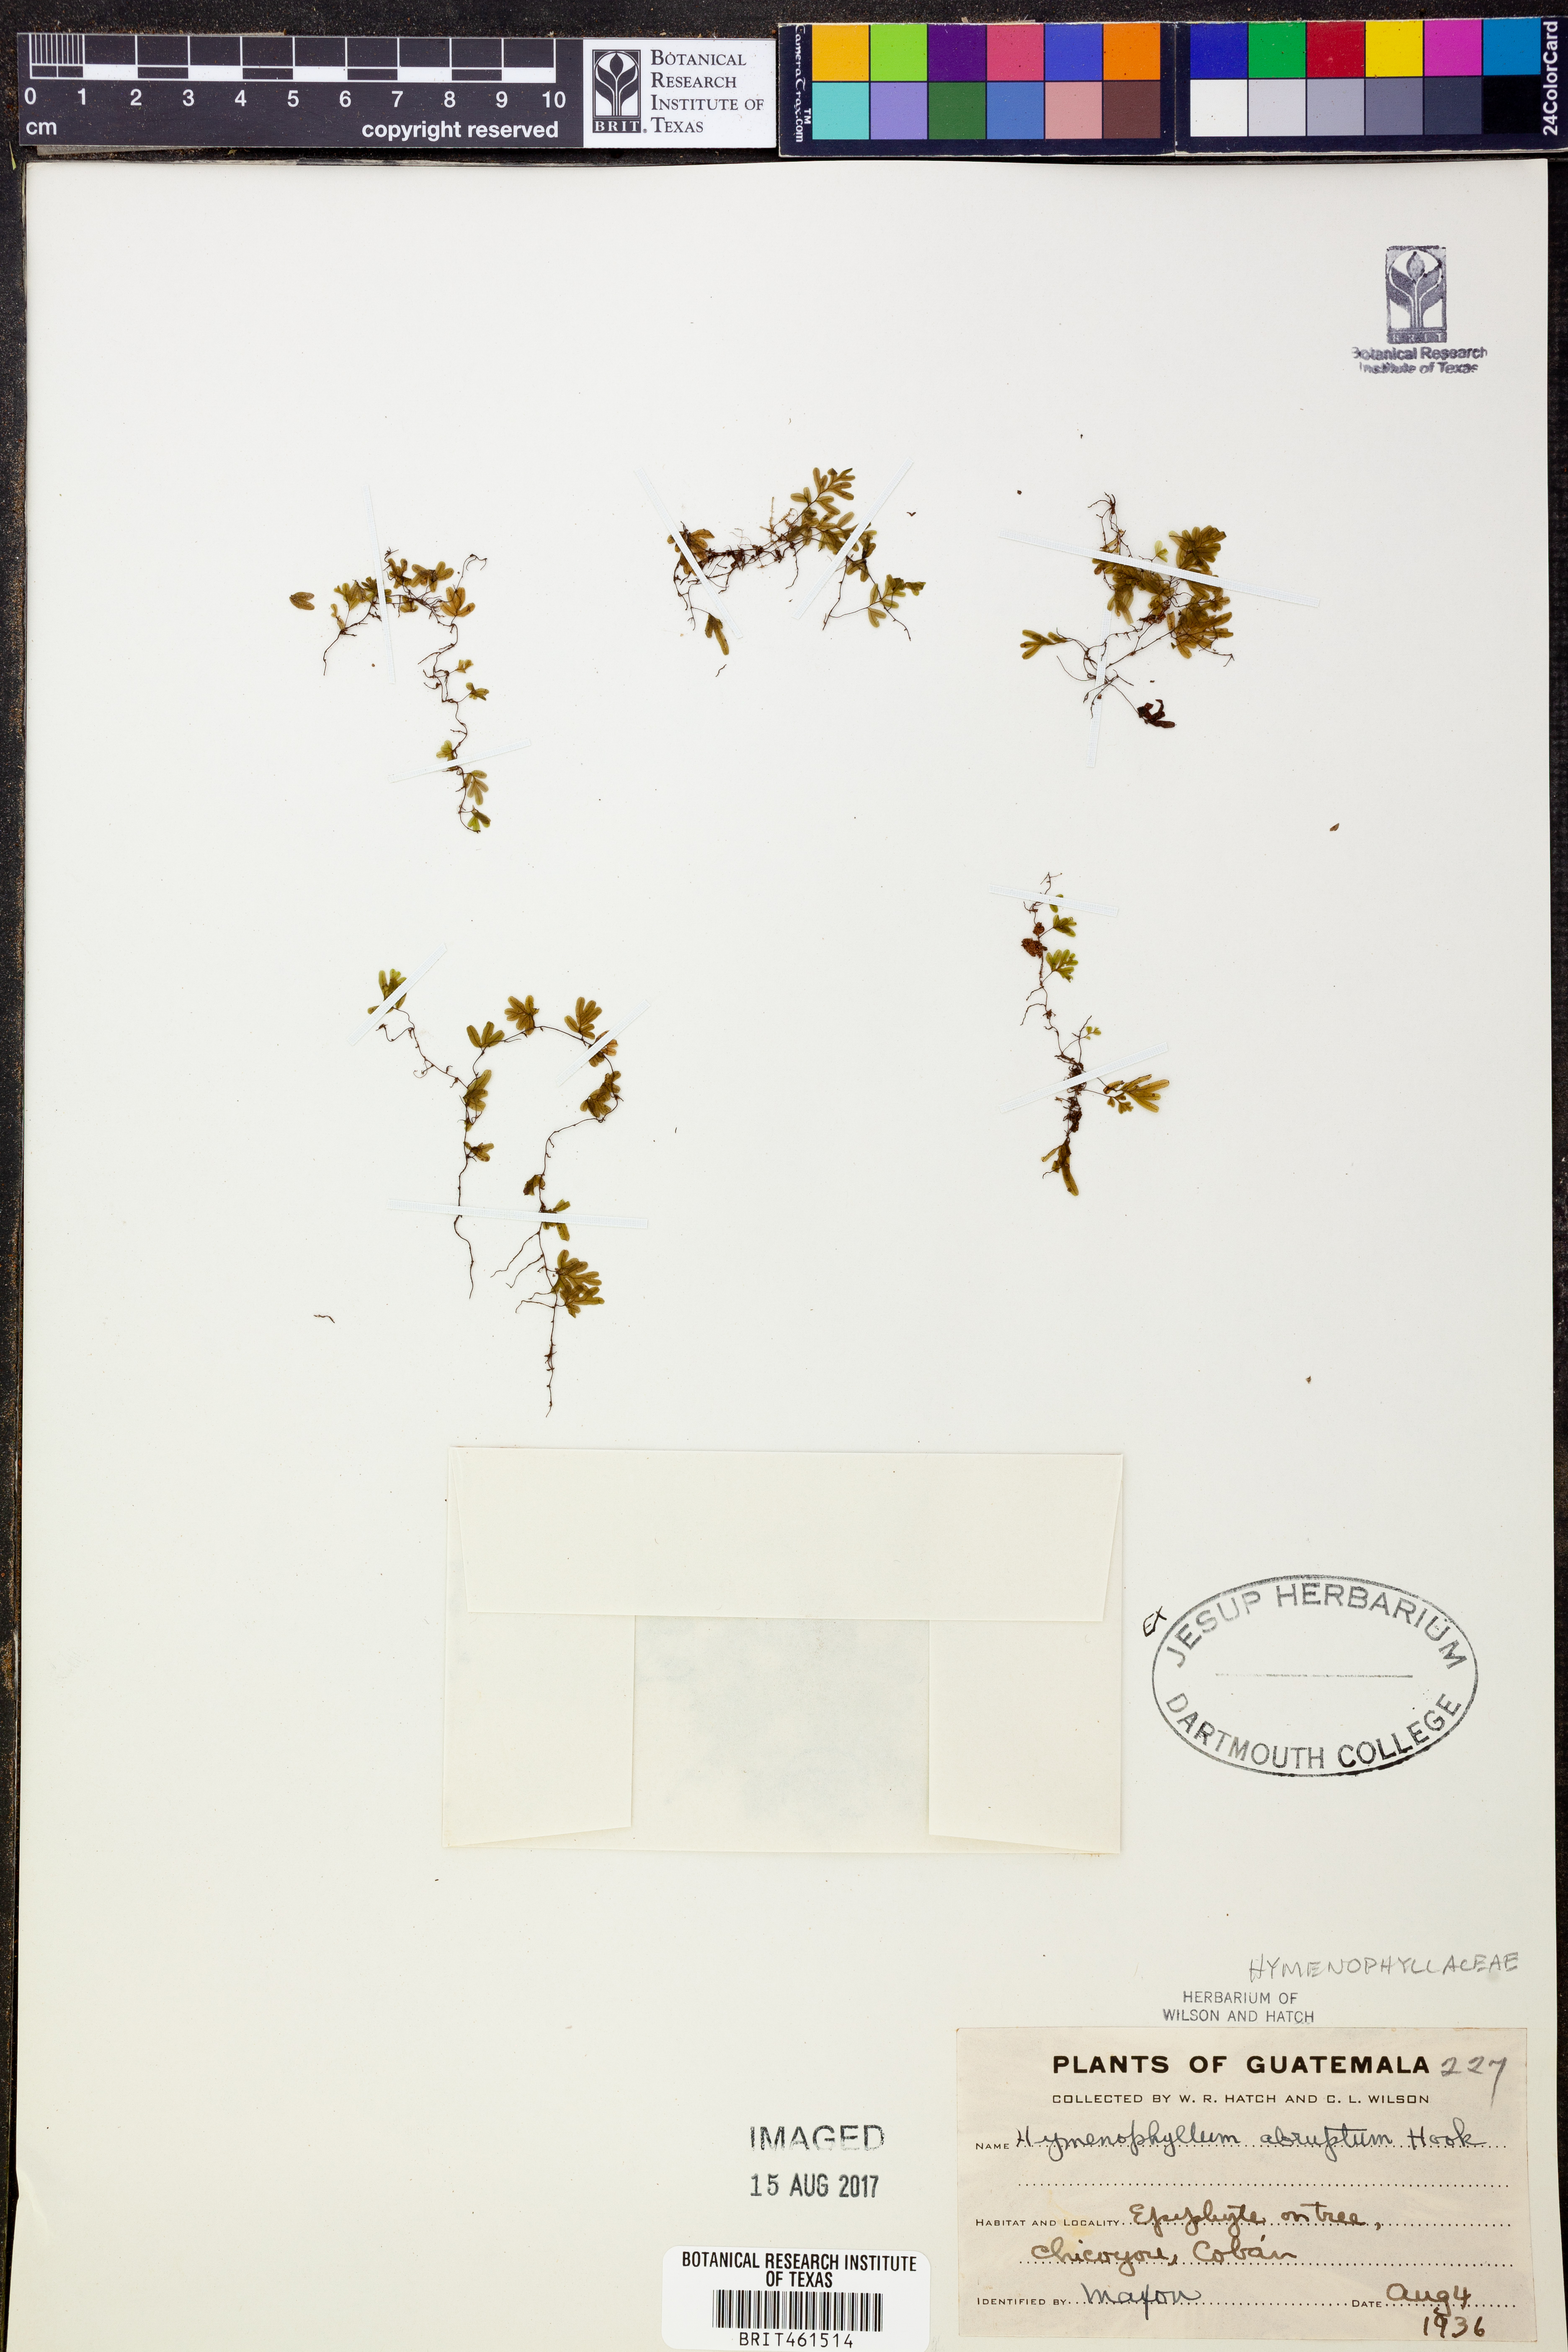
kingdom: Plantae
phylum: Tracheophyta
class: Polypodiopsida
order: Hymenophyllales
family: Hymenophyllaceae
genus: Hymenophyllum
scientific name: Hymenophyllum abruptum
